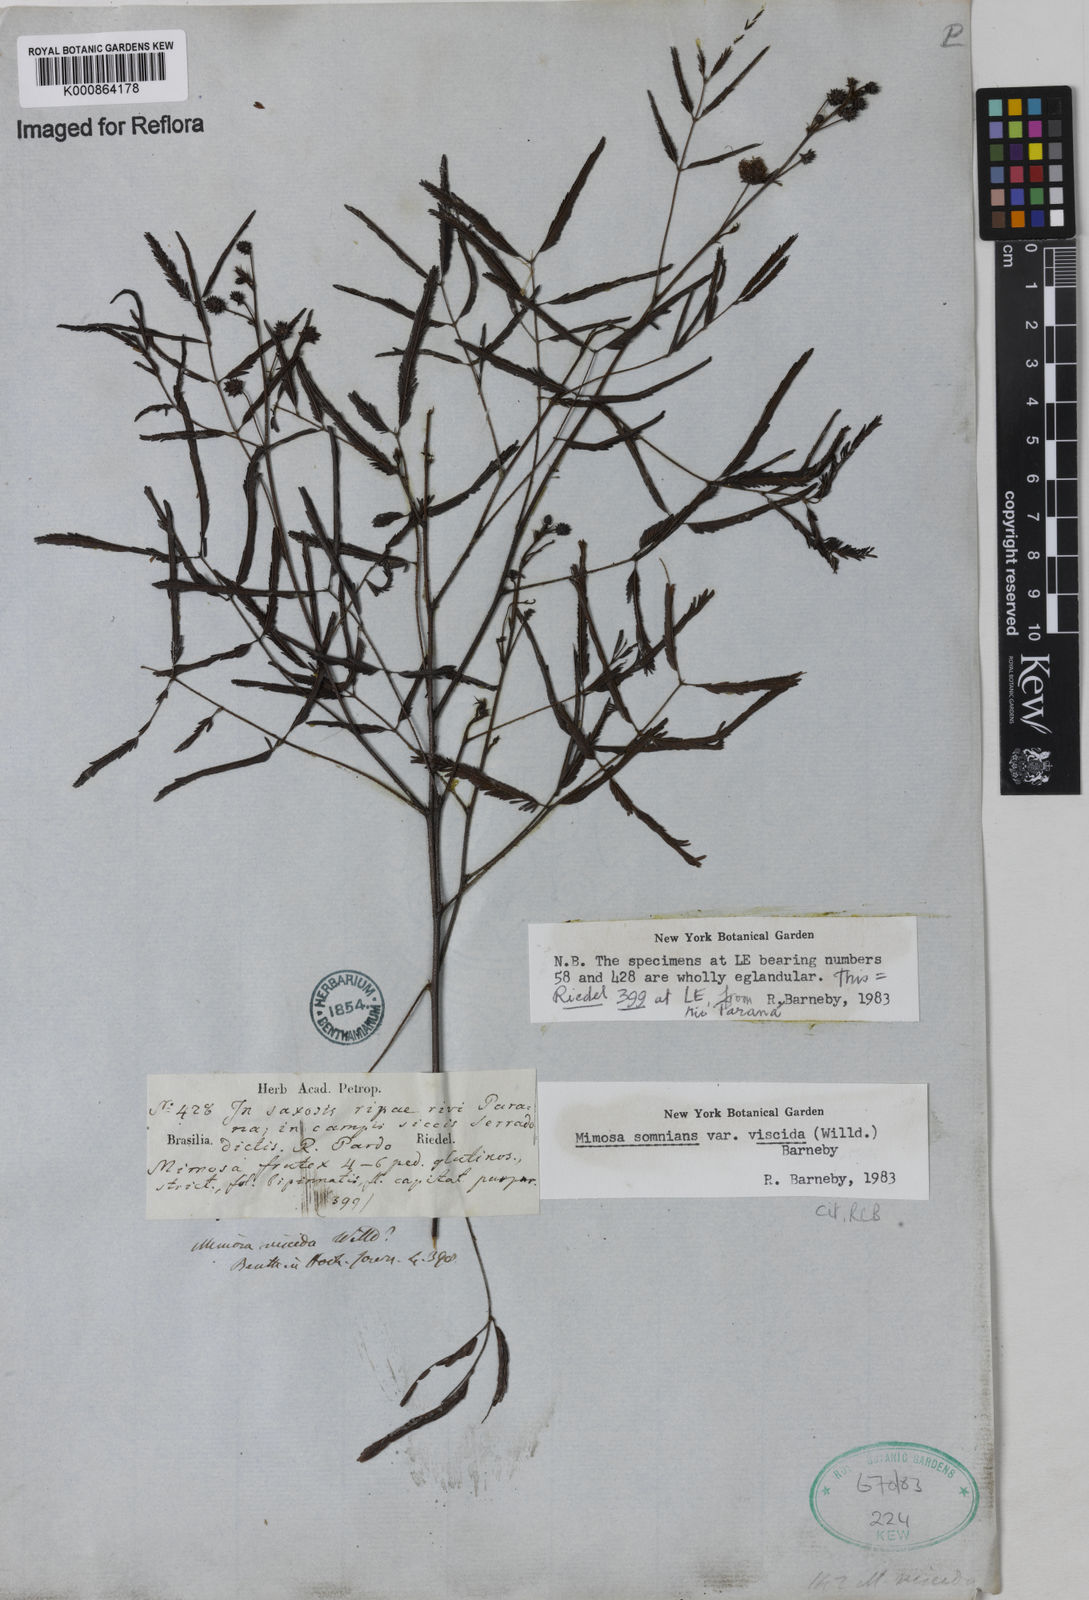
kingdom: Plantae
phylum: Tracheophyta
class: Magnoliopsida
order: Fabales
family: Fabaceae
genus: Mimosa
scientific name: Mimosa somnians
